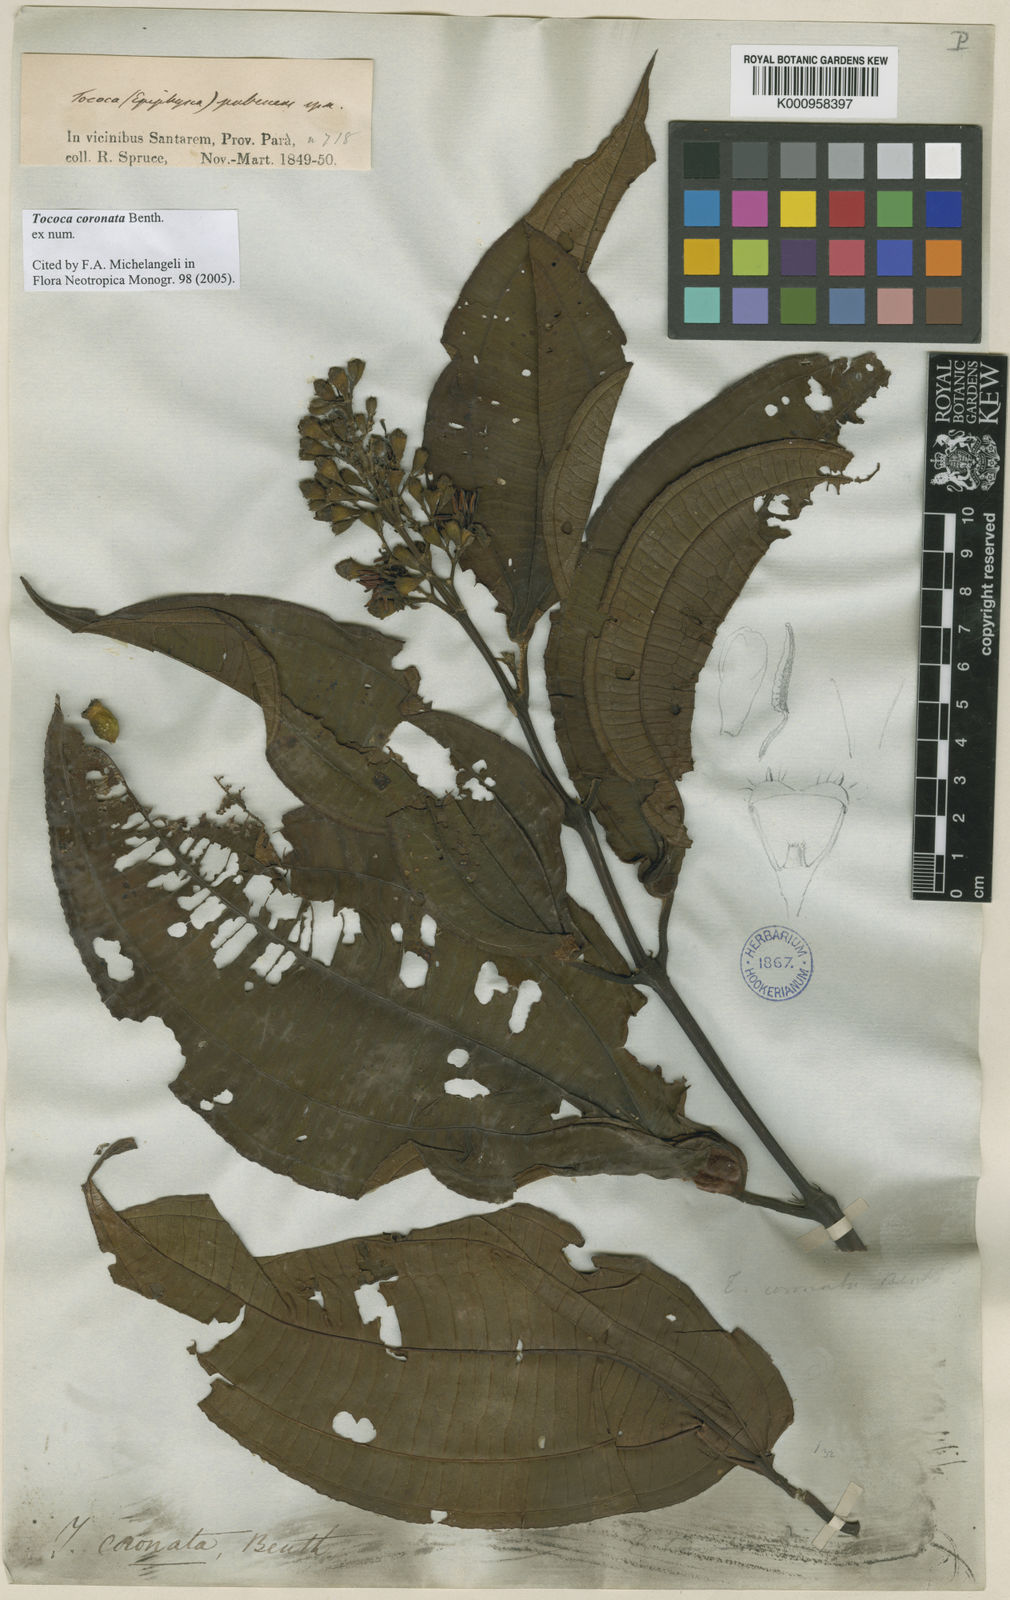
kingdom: Plantae
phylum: Tracheophyta
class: Magnoliopsida
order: Myrtales
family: Melastomataceae
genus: Miconia
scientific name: Miconia tococoronata
